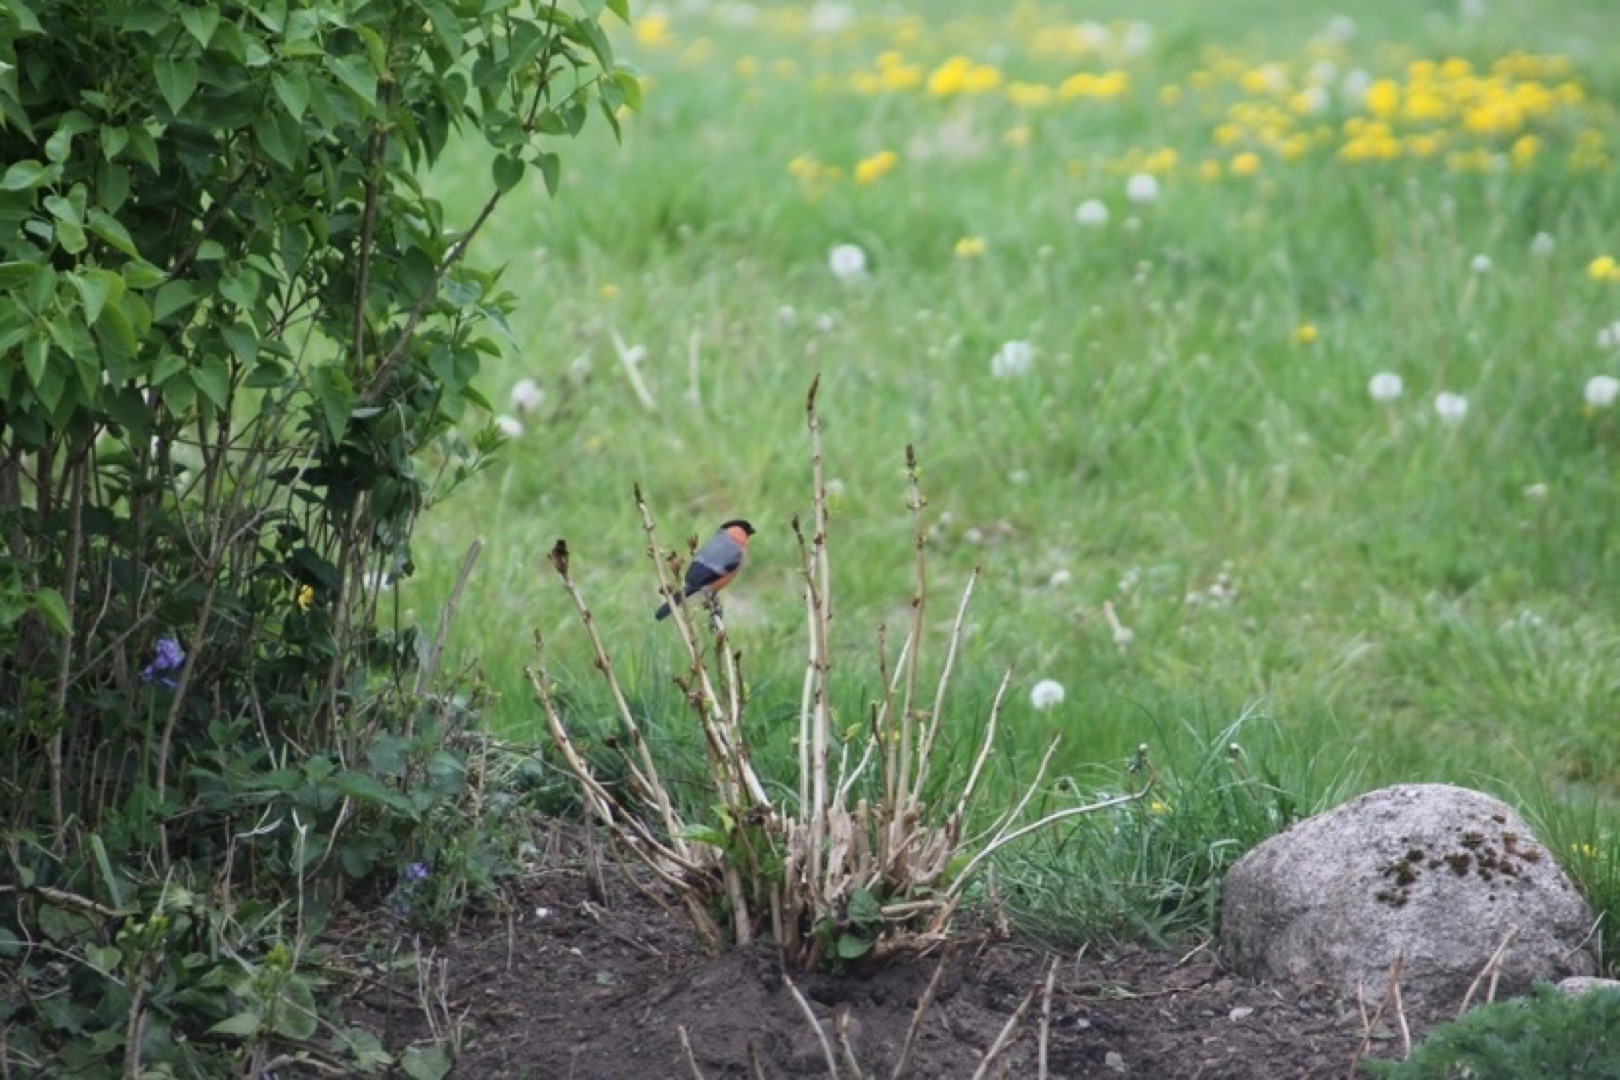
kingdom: Animalia
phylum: Chordata
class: Aves
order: Passeriformes
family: Fringillidae
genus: Pyrrhula
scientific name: Pyrrhula pyrrhula
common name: Dompap
